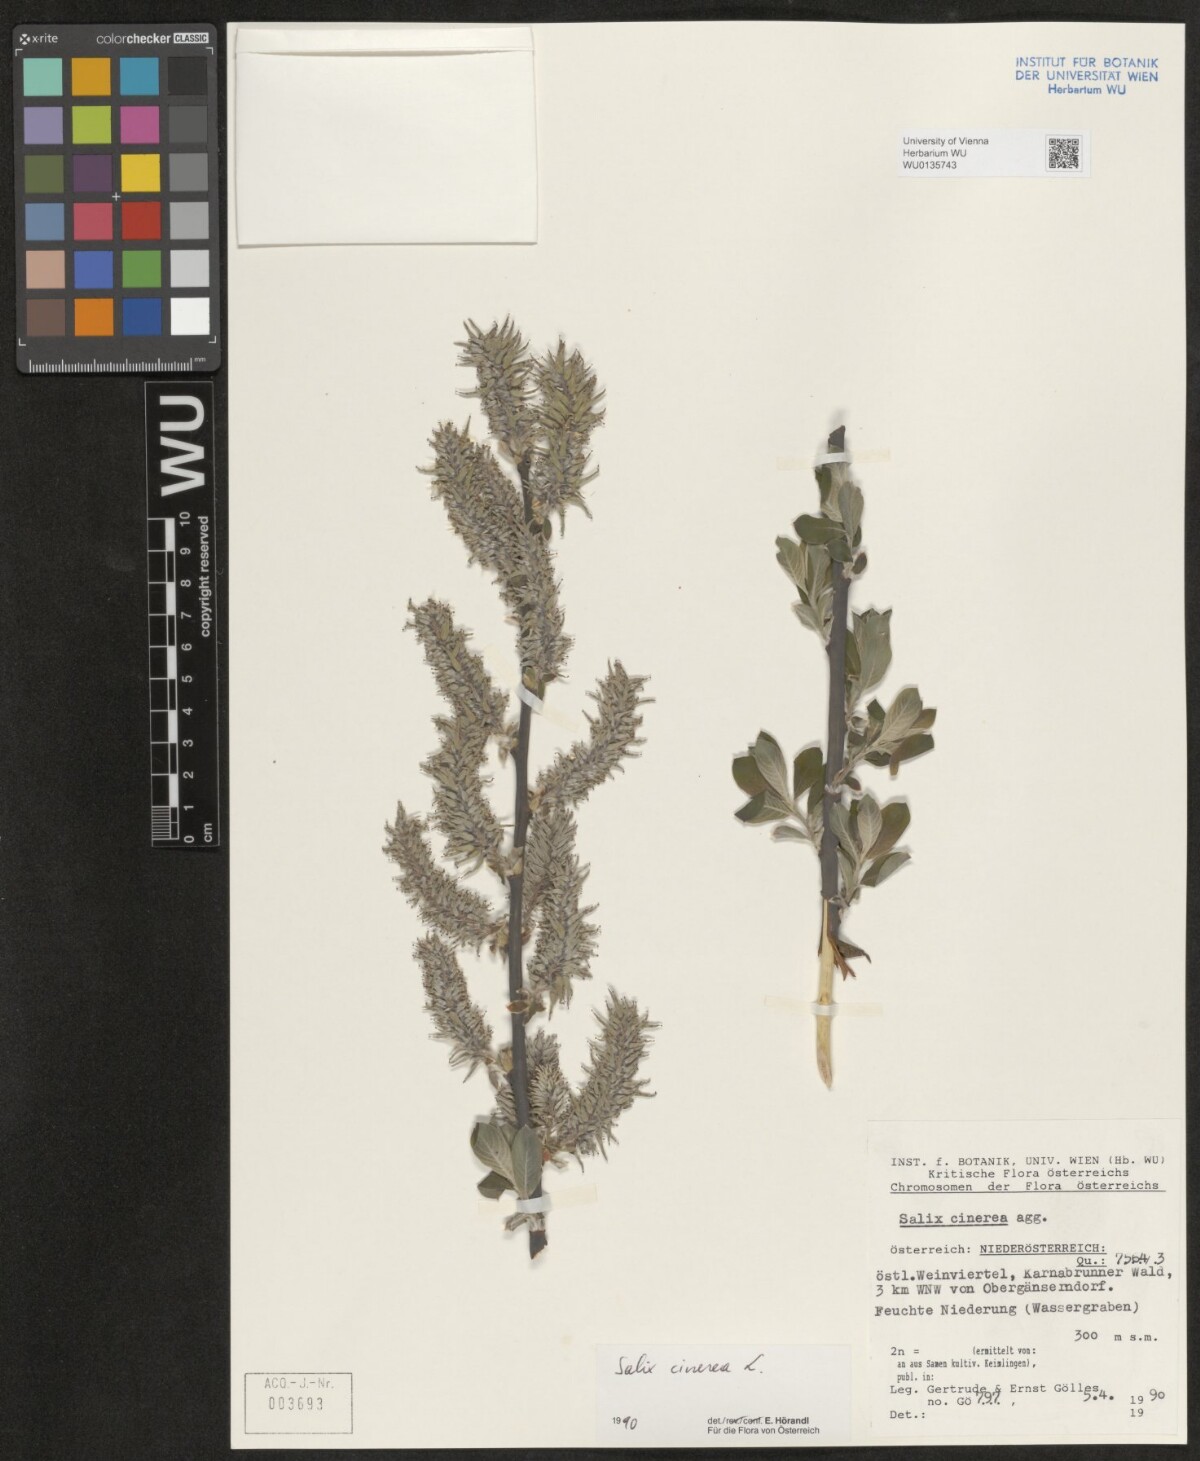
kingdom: Plantae
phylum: Tracheophyta
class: Magnoliopsida
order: Malpighiales
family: Salicaceae
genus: Salix
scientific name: Salix cinerea
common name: Common sallow
